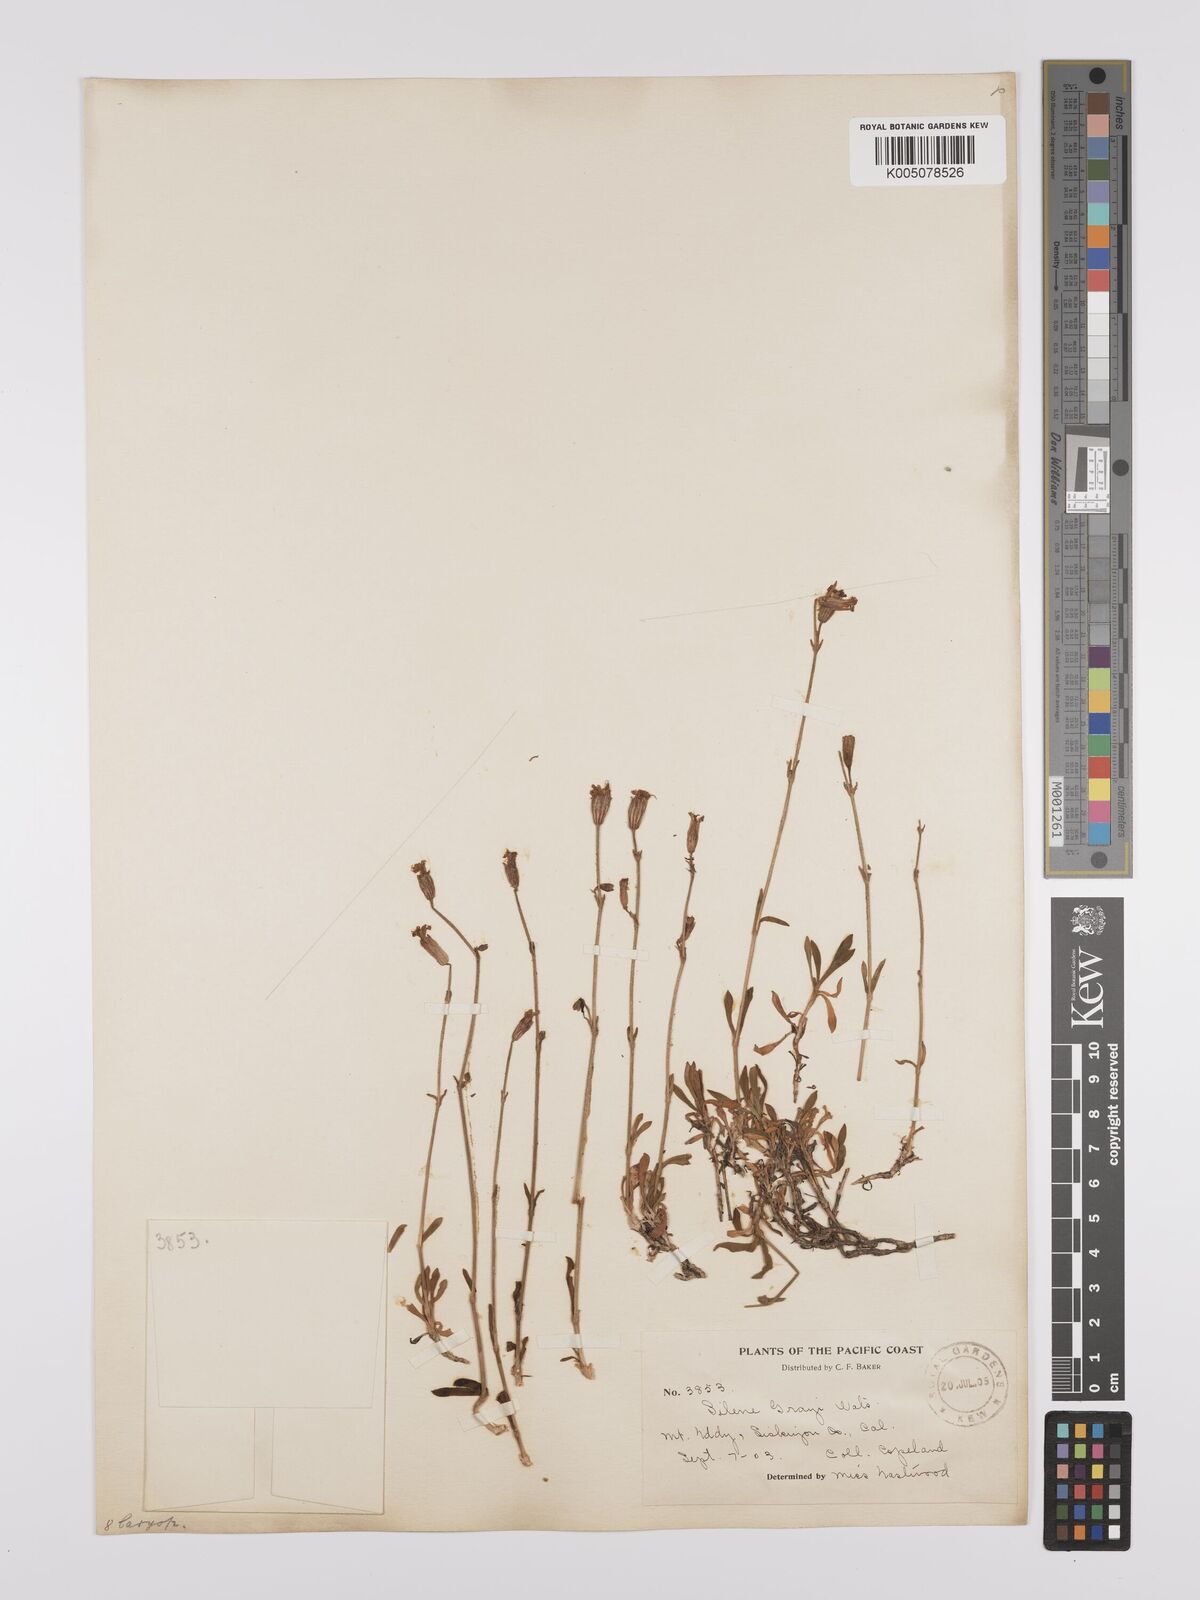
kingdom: Plantae
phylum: Tracheophyta
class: Magnoliopsida
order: Caryophyllales
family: Caryophyllaceae
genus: Silene
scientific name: Silene grayi
